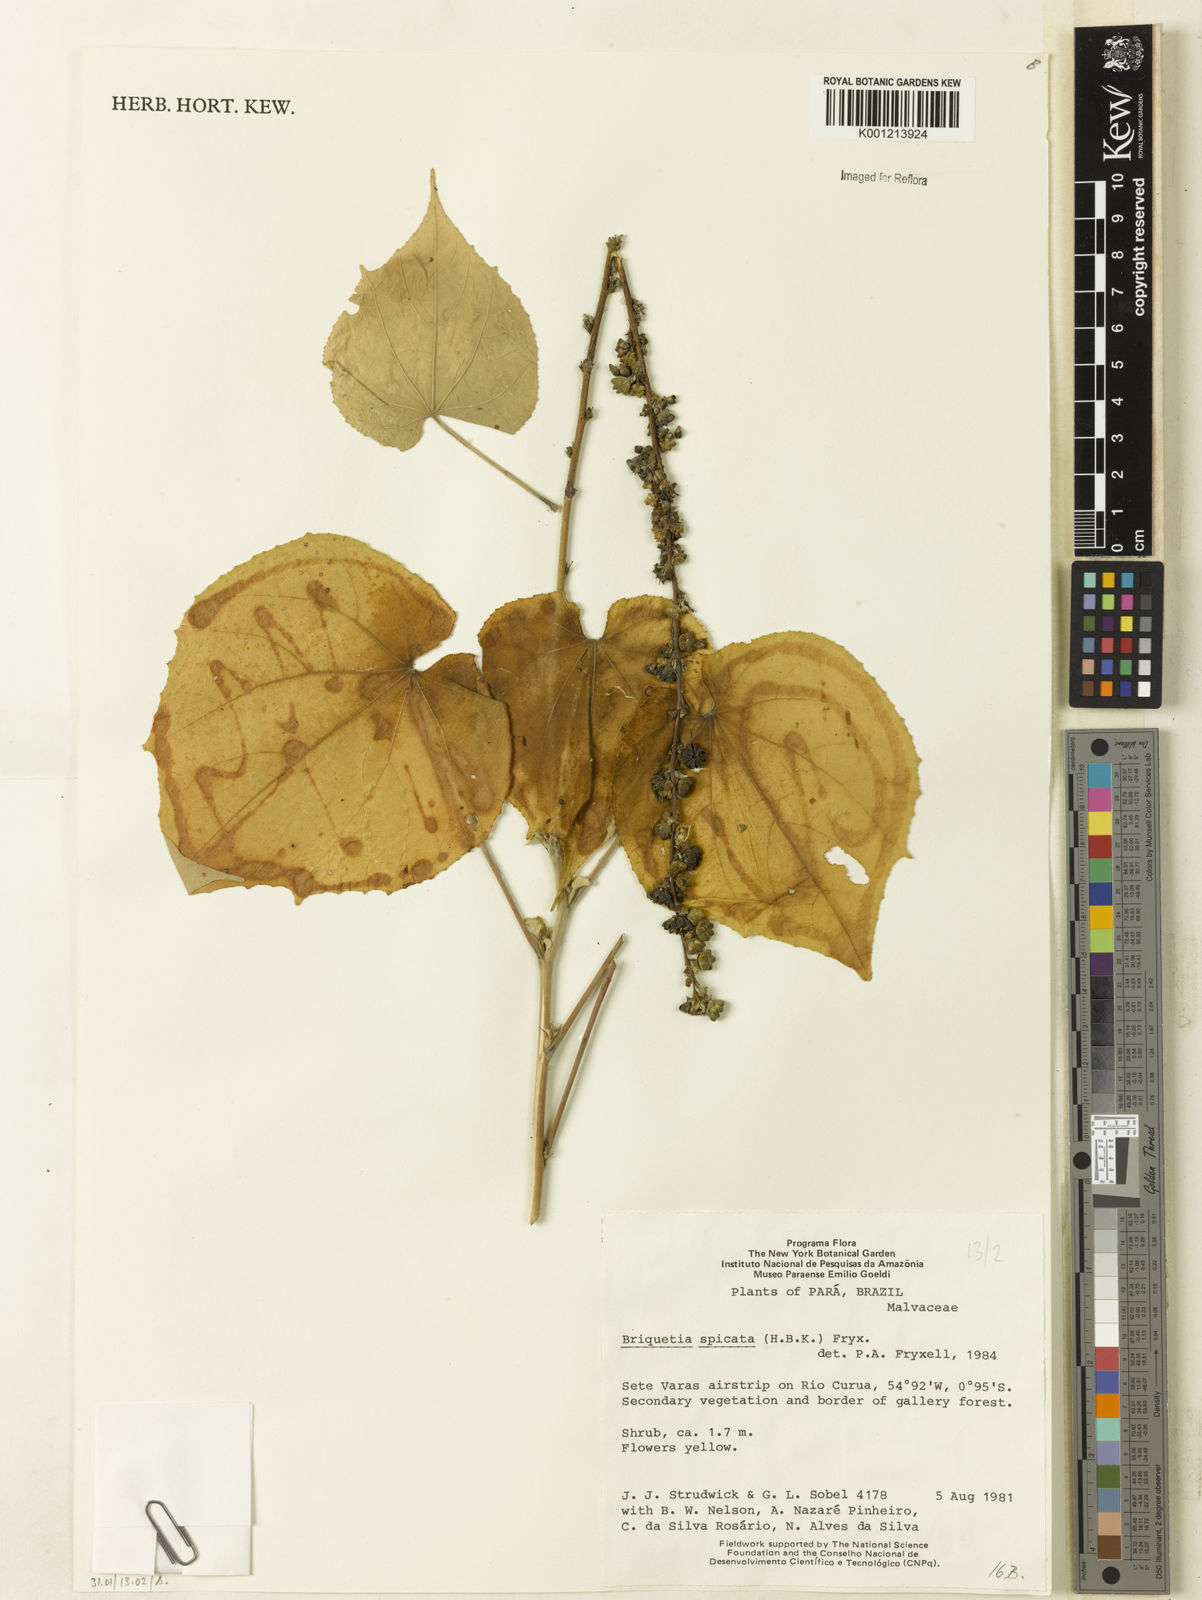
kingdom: Plantae
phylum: Tracheophyta
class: Magnoliopsida
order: Malvales
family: Malvaceae
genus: Allobriquetia
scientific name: Allobriquetia spicata
